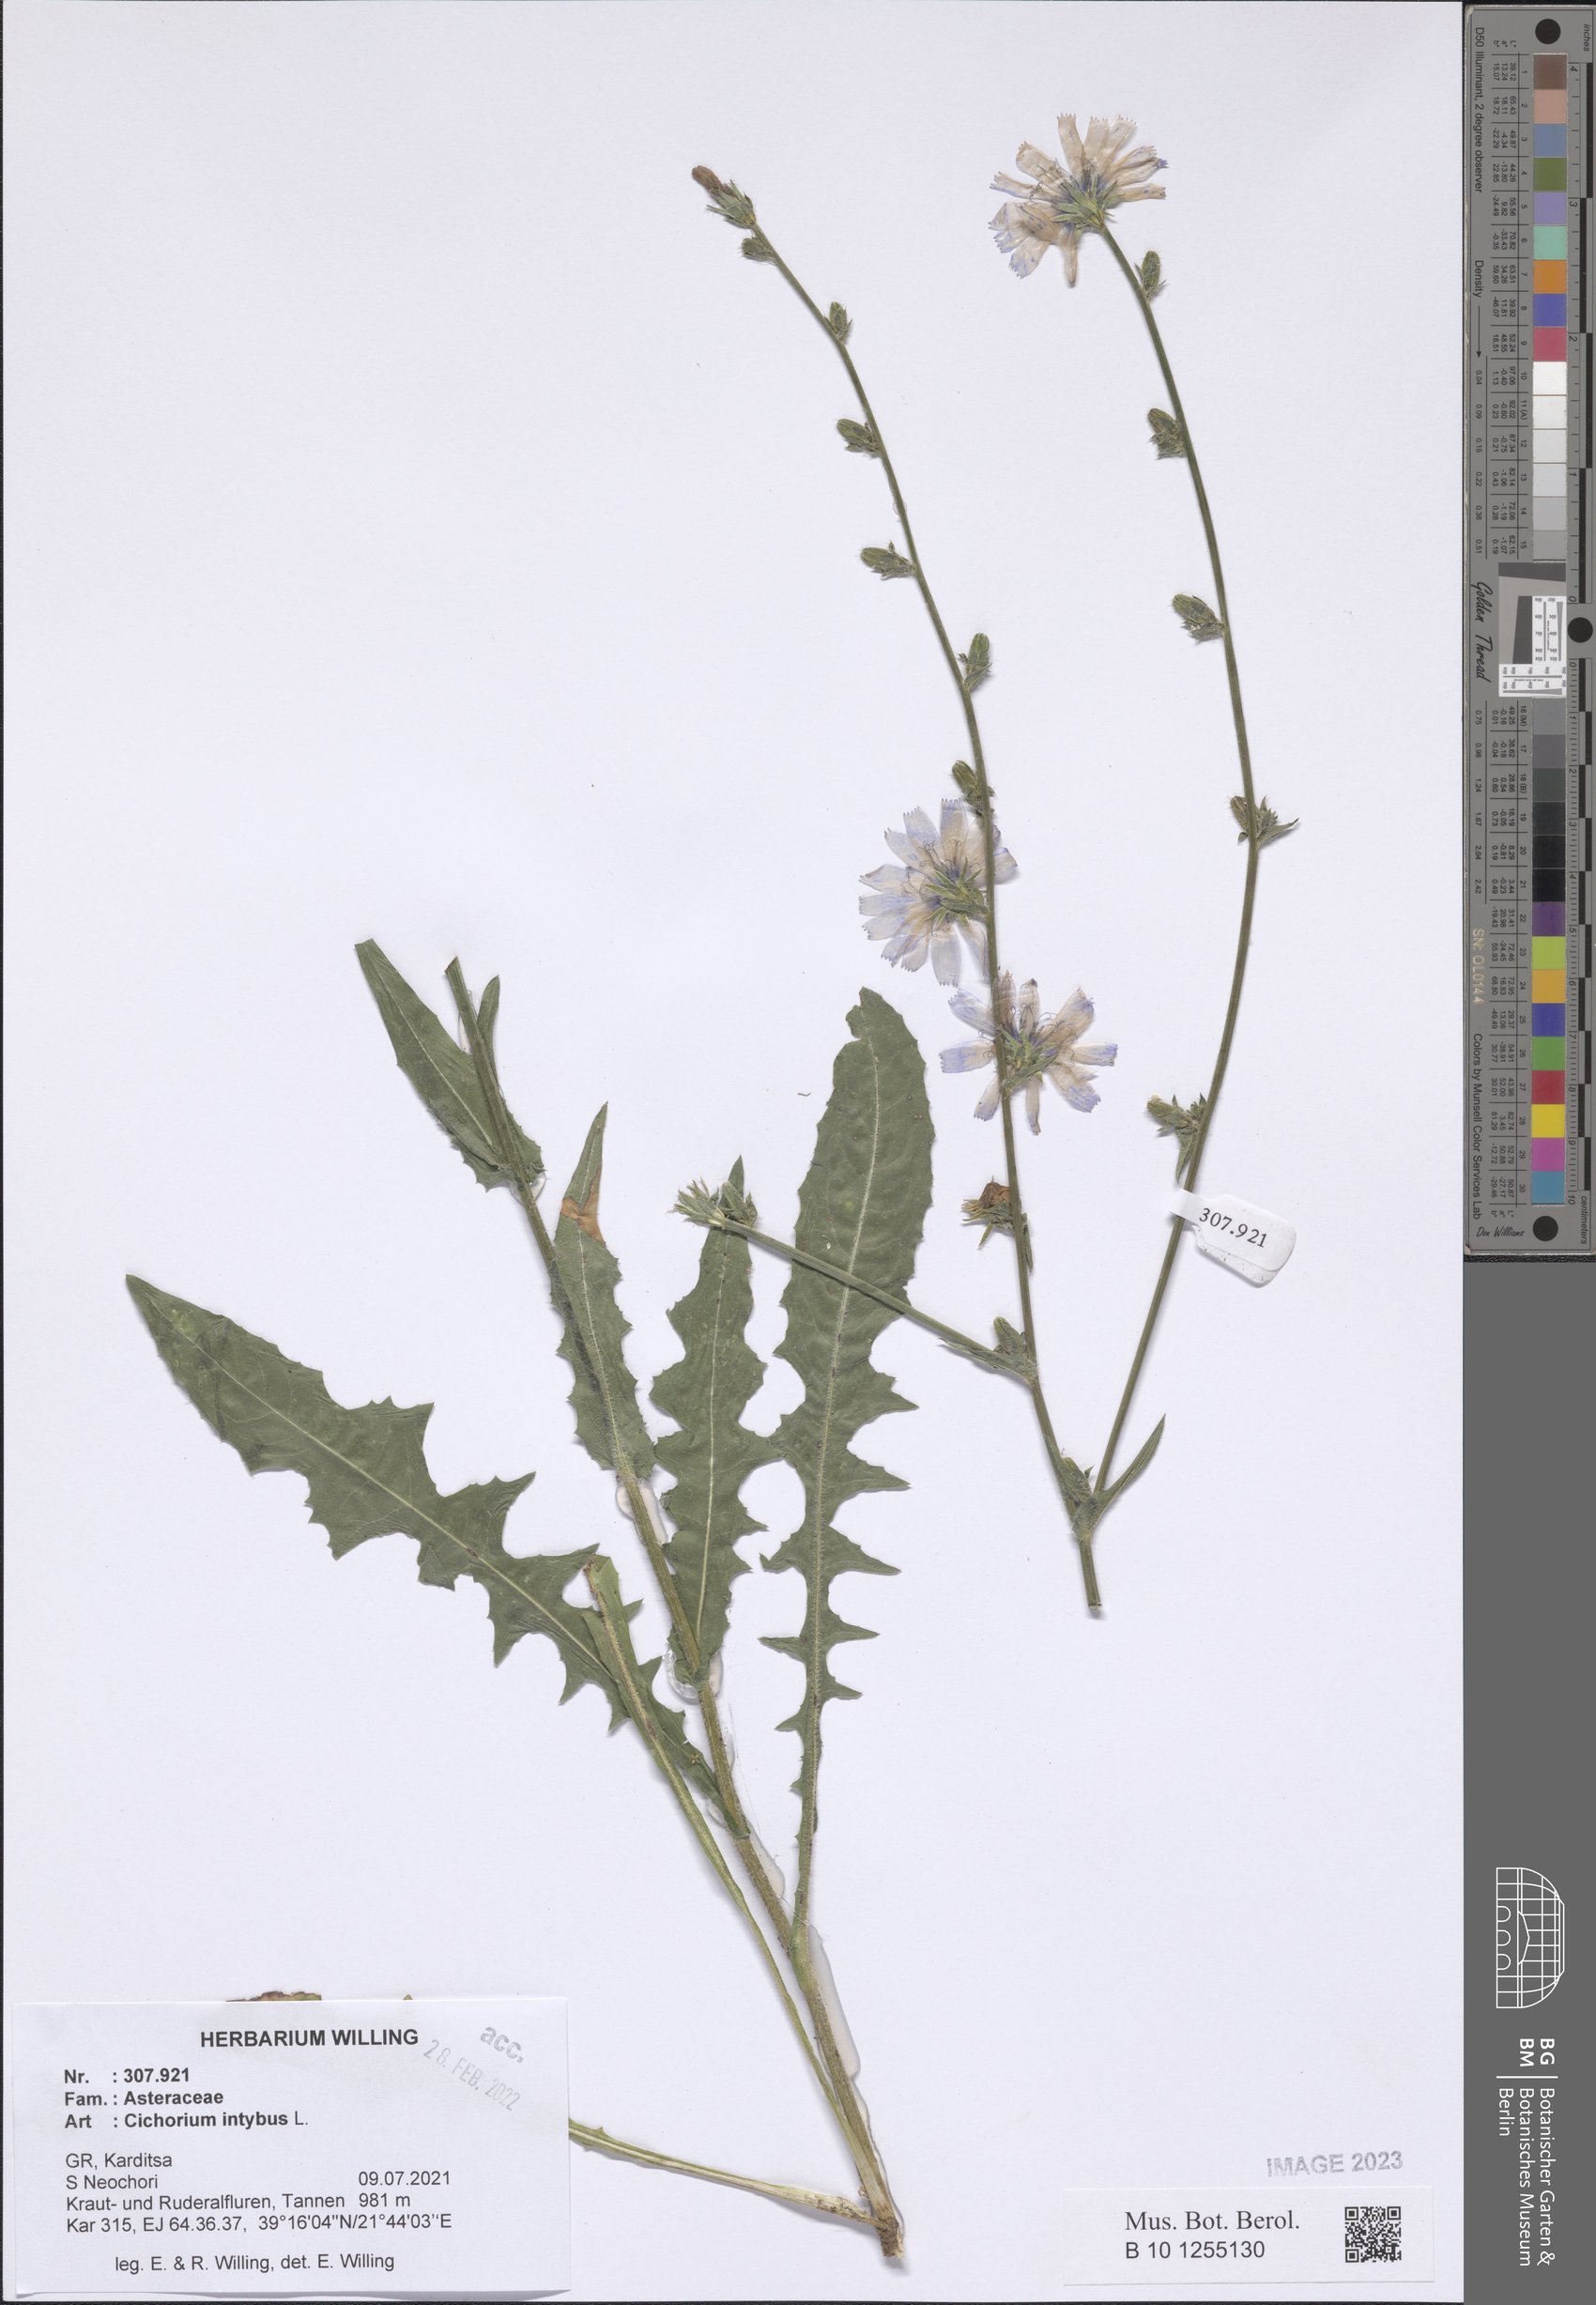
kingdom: Plantae
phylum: Tracheophyta
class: Magnoliopsida
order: Asterales
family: Asteraceae
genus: Cichorium
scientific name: Cichorium intybus
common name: Chicory
